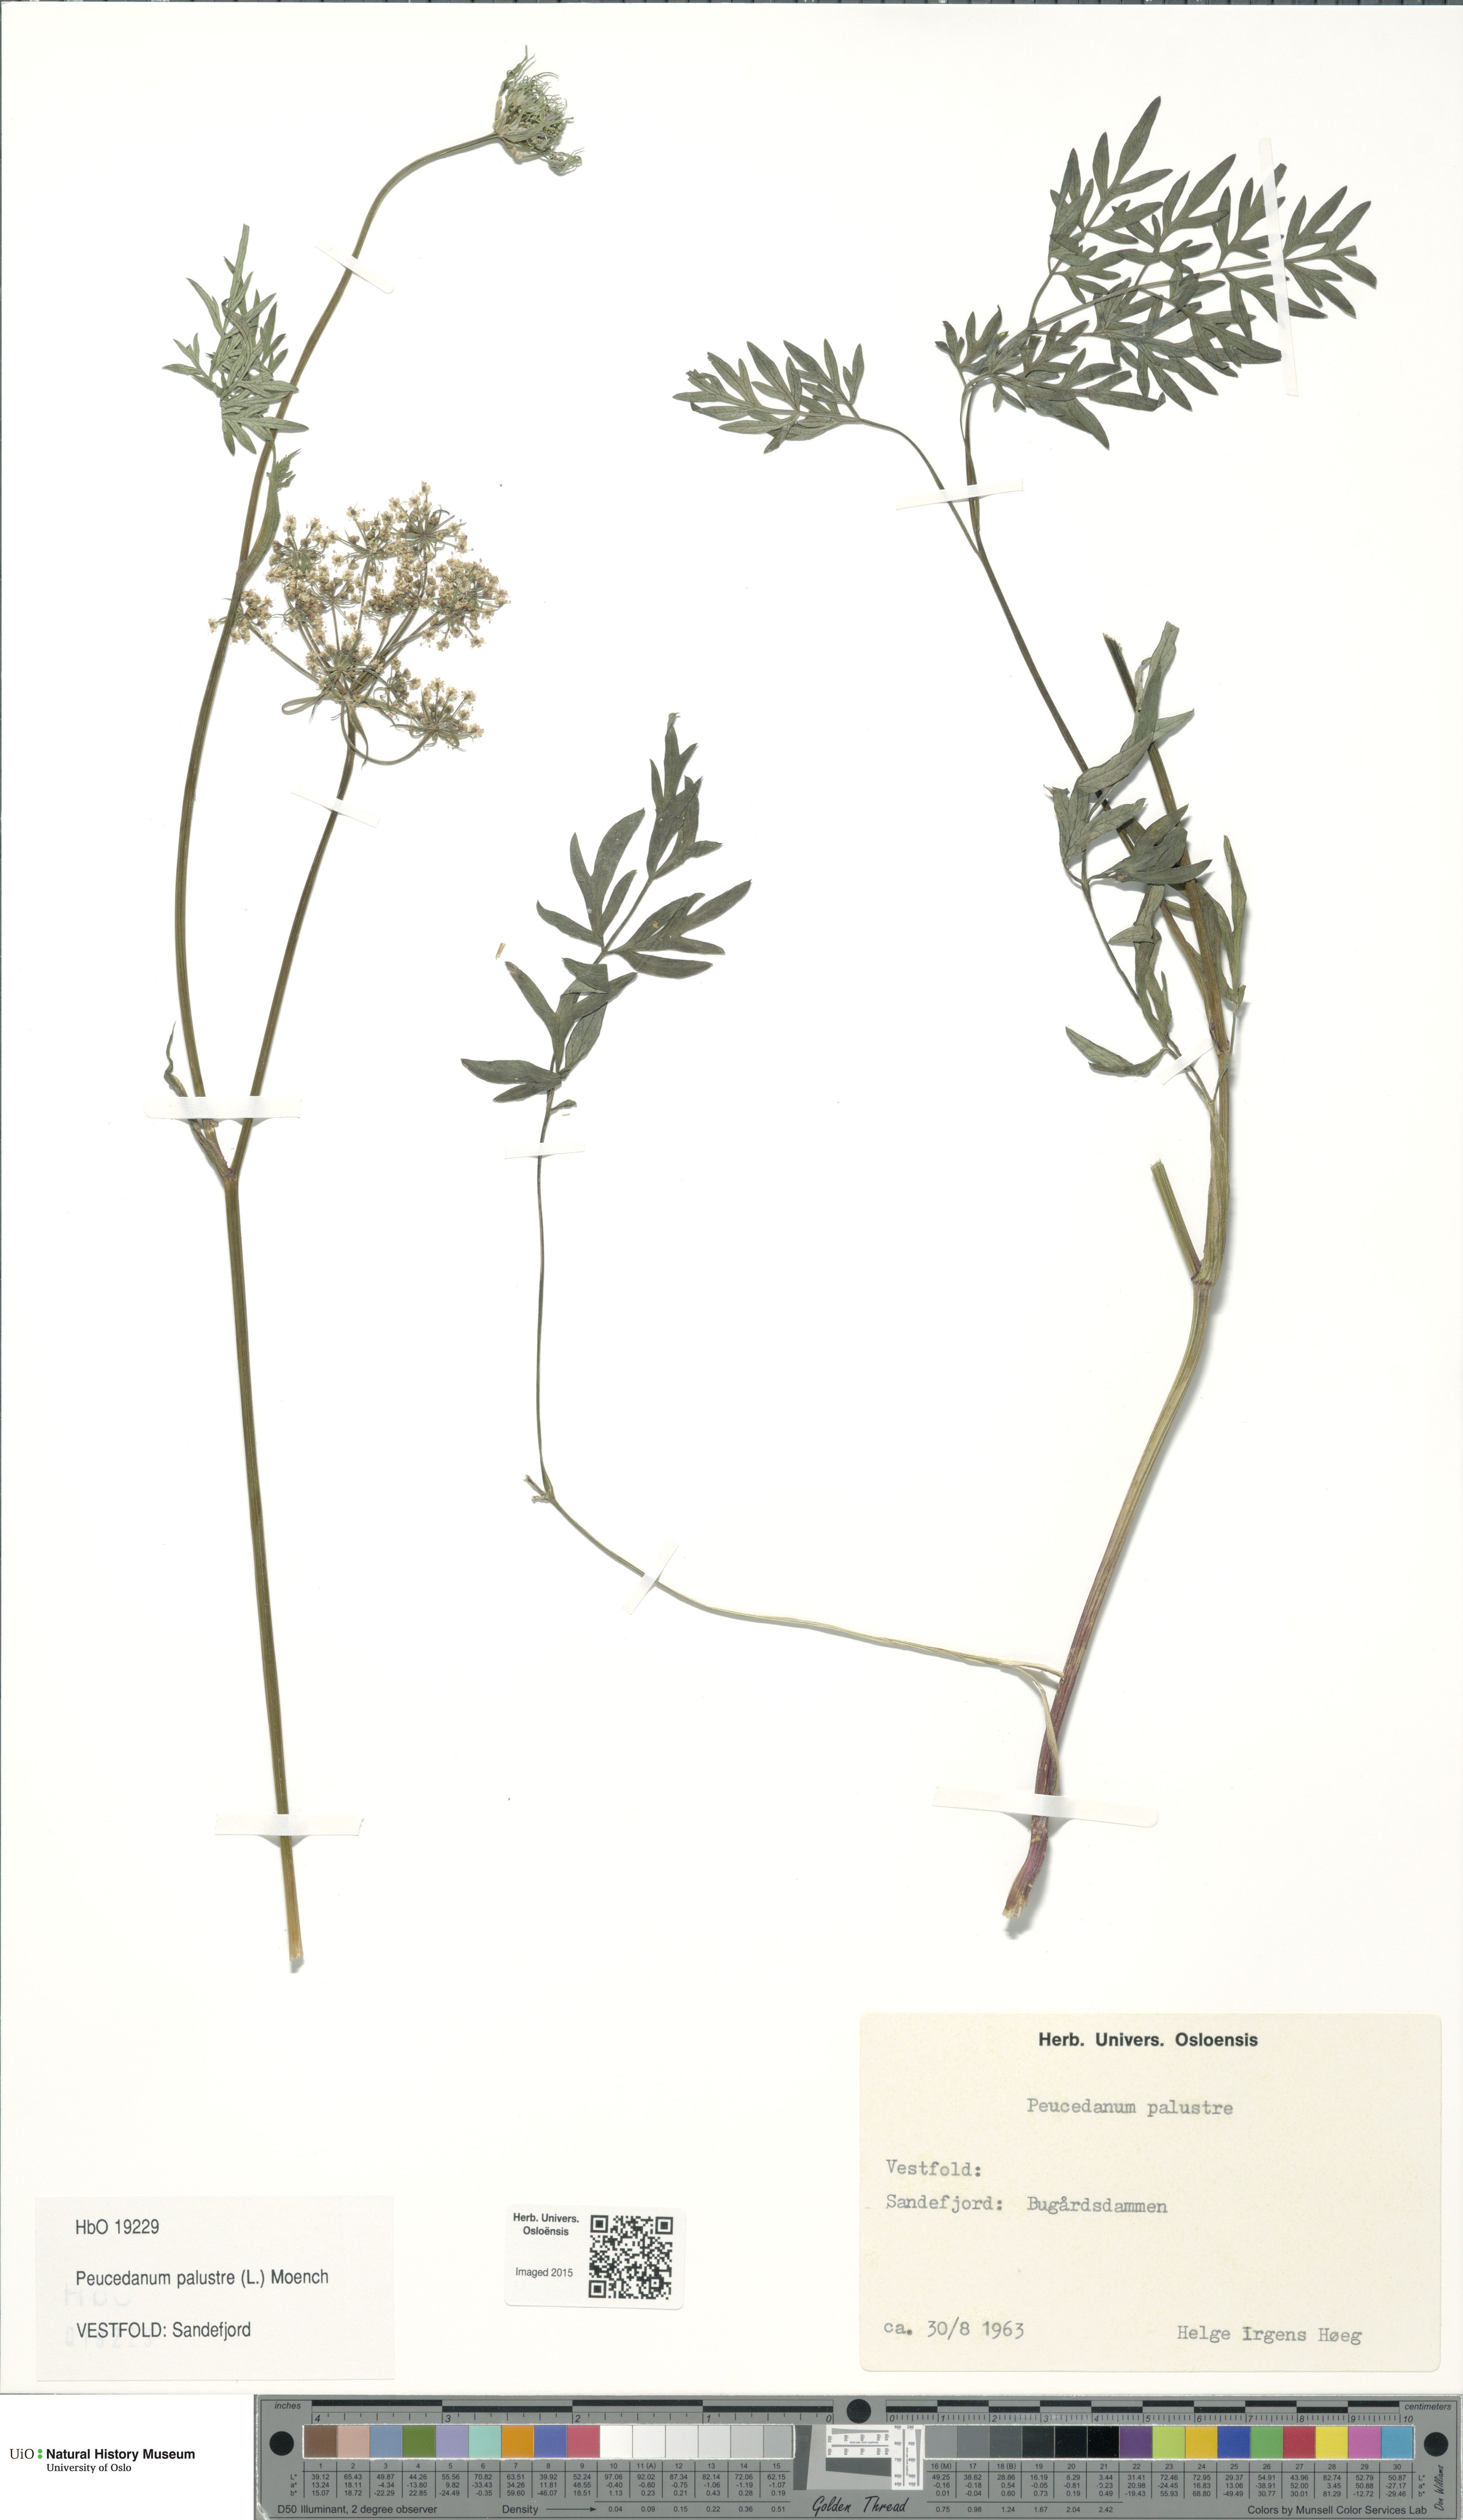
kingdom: Plantae
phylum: Tracheophyta
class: Magnoliopsida
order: Apiales
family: Apiaceae
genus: Thysselinum
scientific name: Thysselinum palustre
